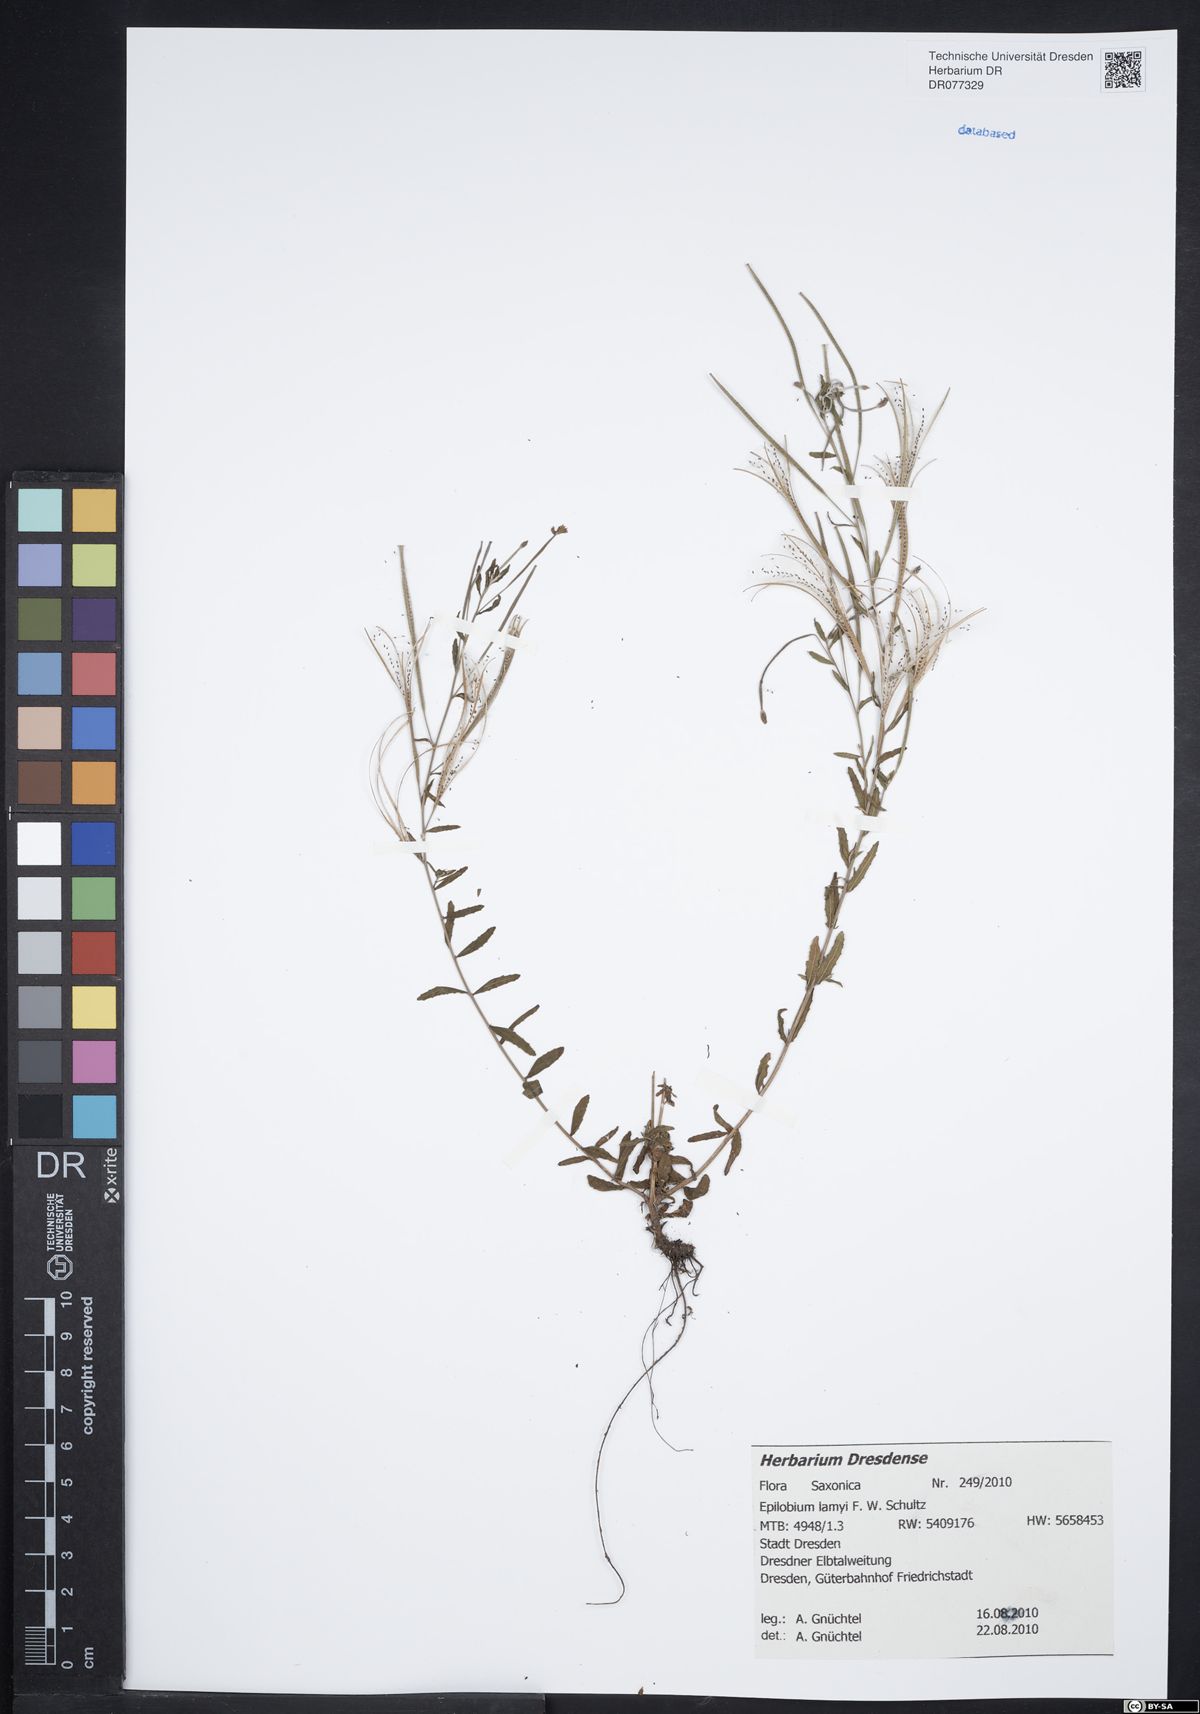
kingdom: Plantae
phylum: Tracheophyta
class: Magnoliopsida
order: Myrtales
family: Onagraceae
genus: Epilobium
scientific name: Epilobium lamyi
